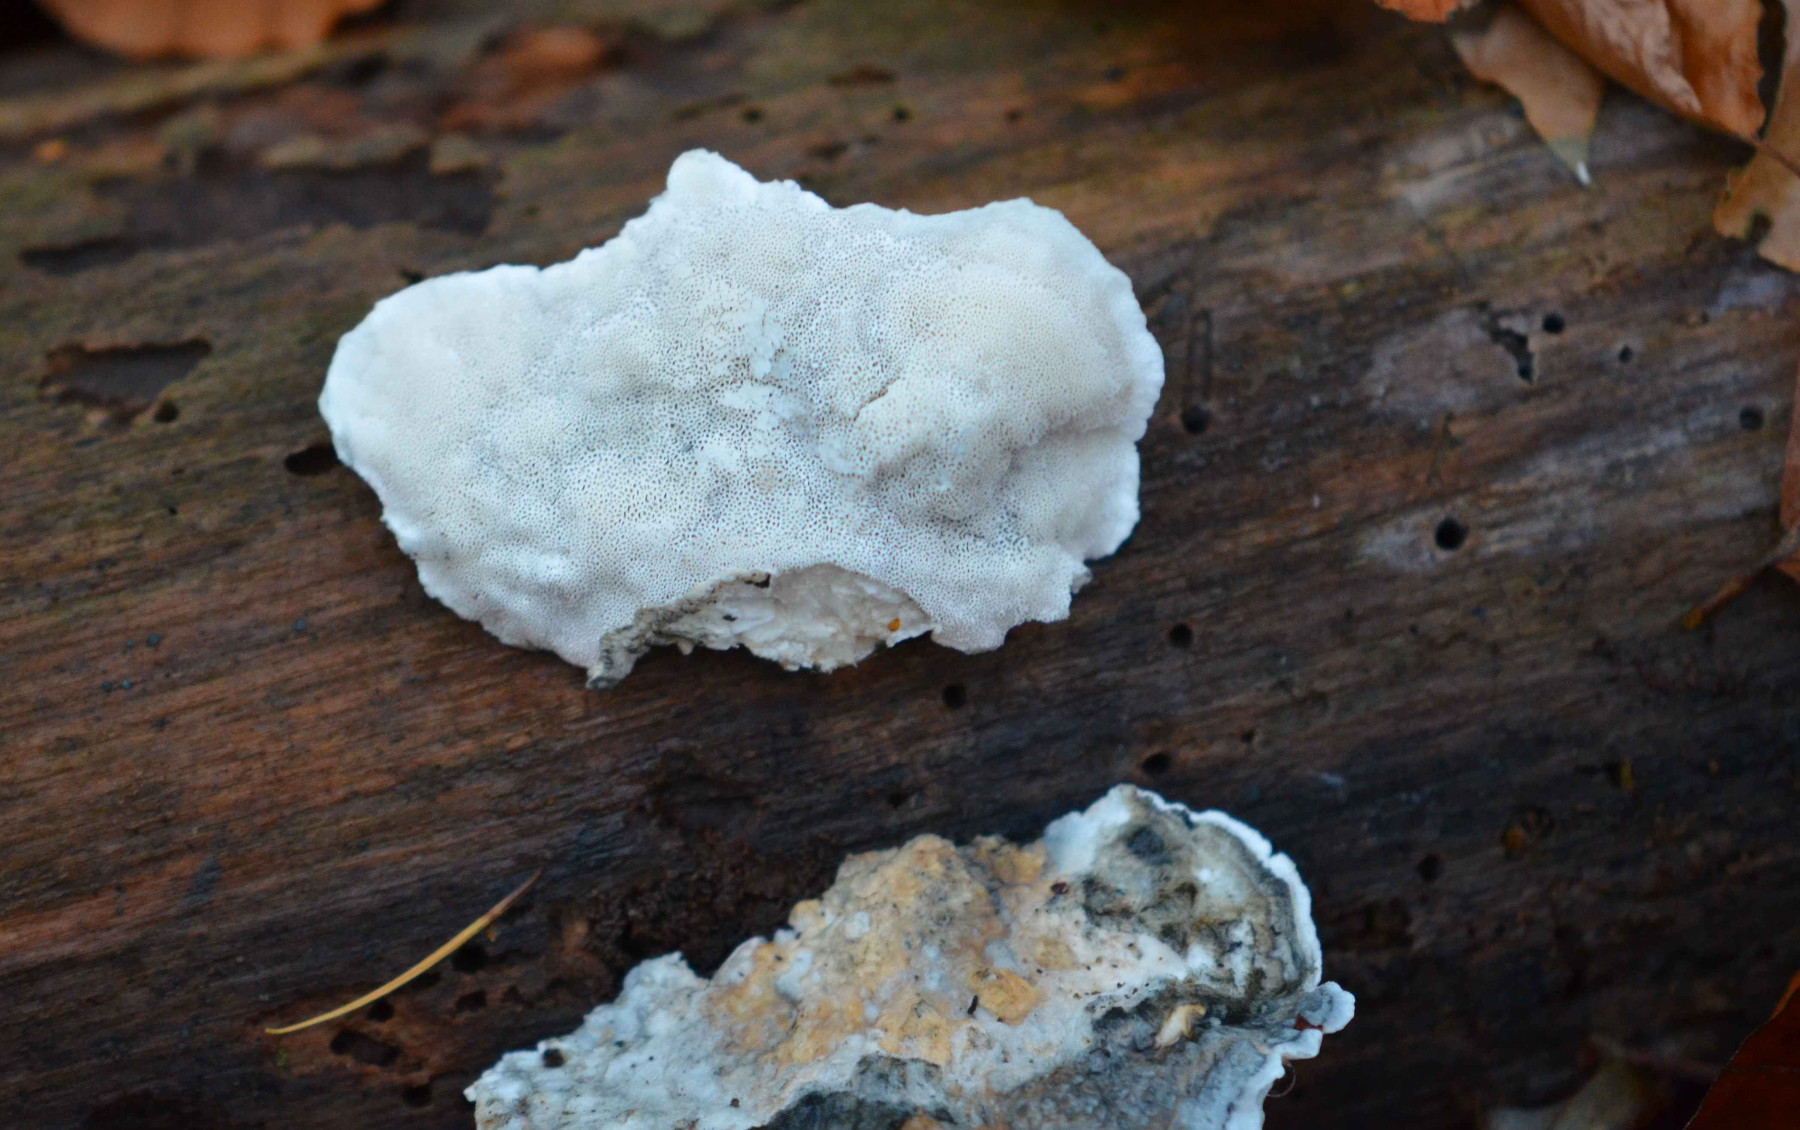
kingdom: Fungi
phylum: Basidiomycota
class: Agaricomycetes
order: Polyporales
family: Polyporaceae
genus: Cyanosporus
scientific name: Cyanosporus alni
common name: blegblå kødporesvamp
